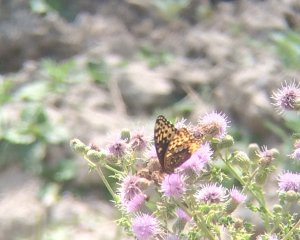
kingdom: Animalia
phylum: Arthropoda
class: Insecta
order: Lepidoptera
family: Nymphalidae
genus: Speyeria
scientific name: Speyeria cybele
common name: Great Spangled Fritillary
